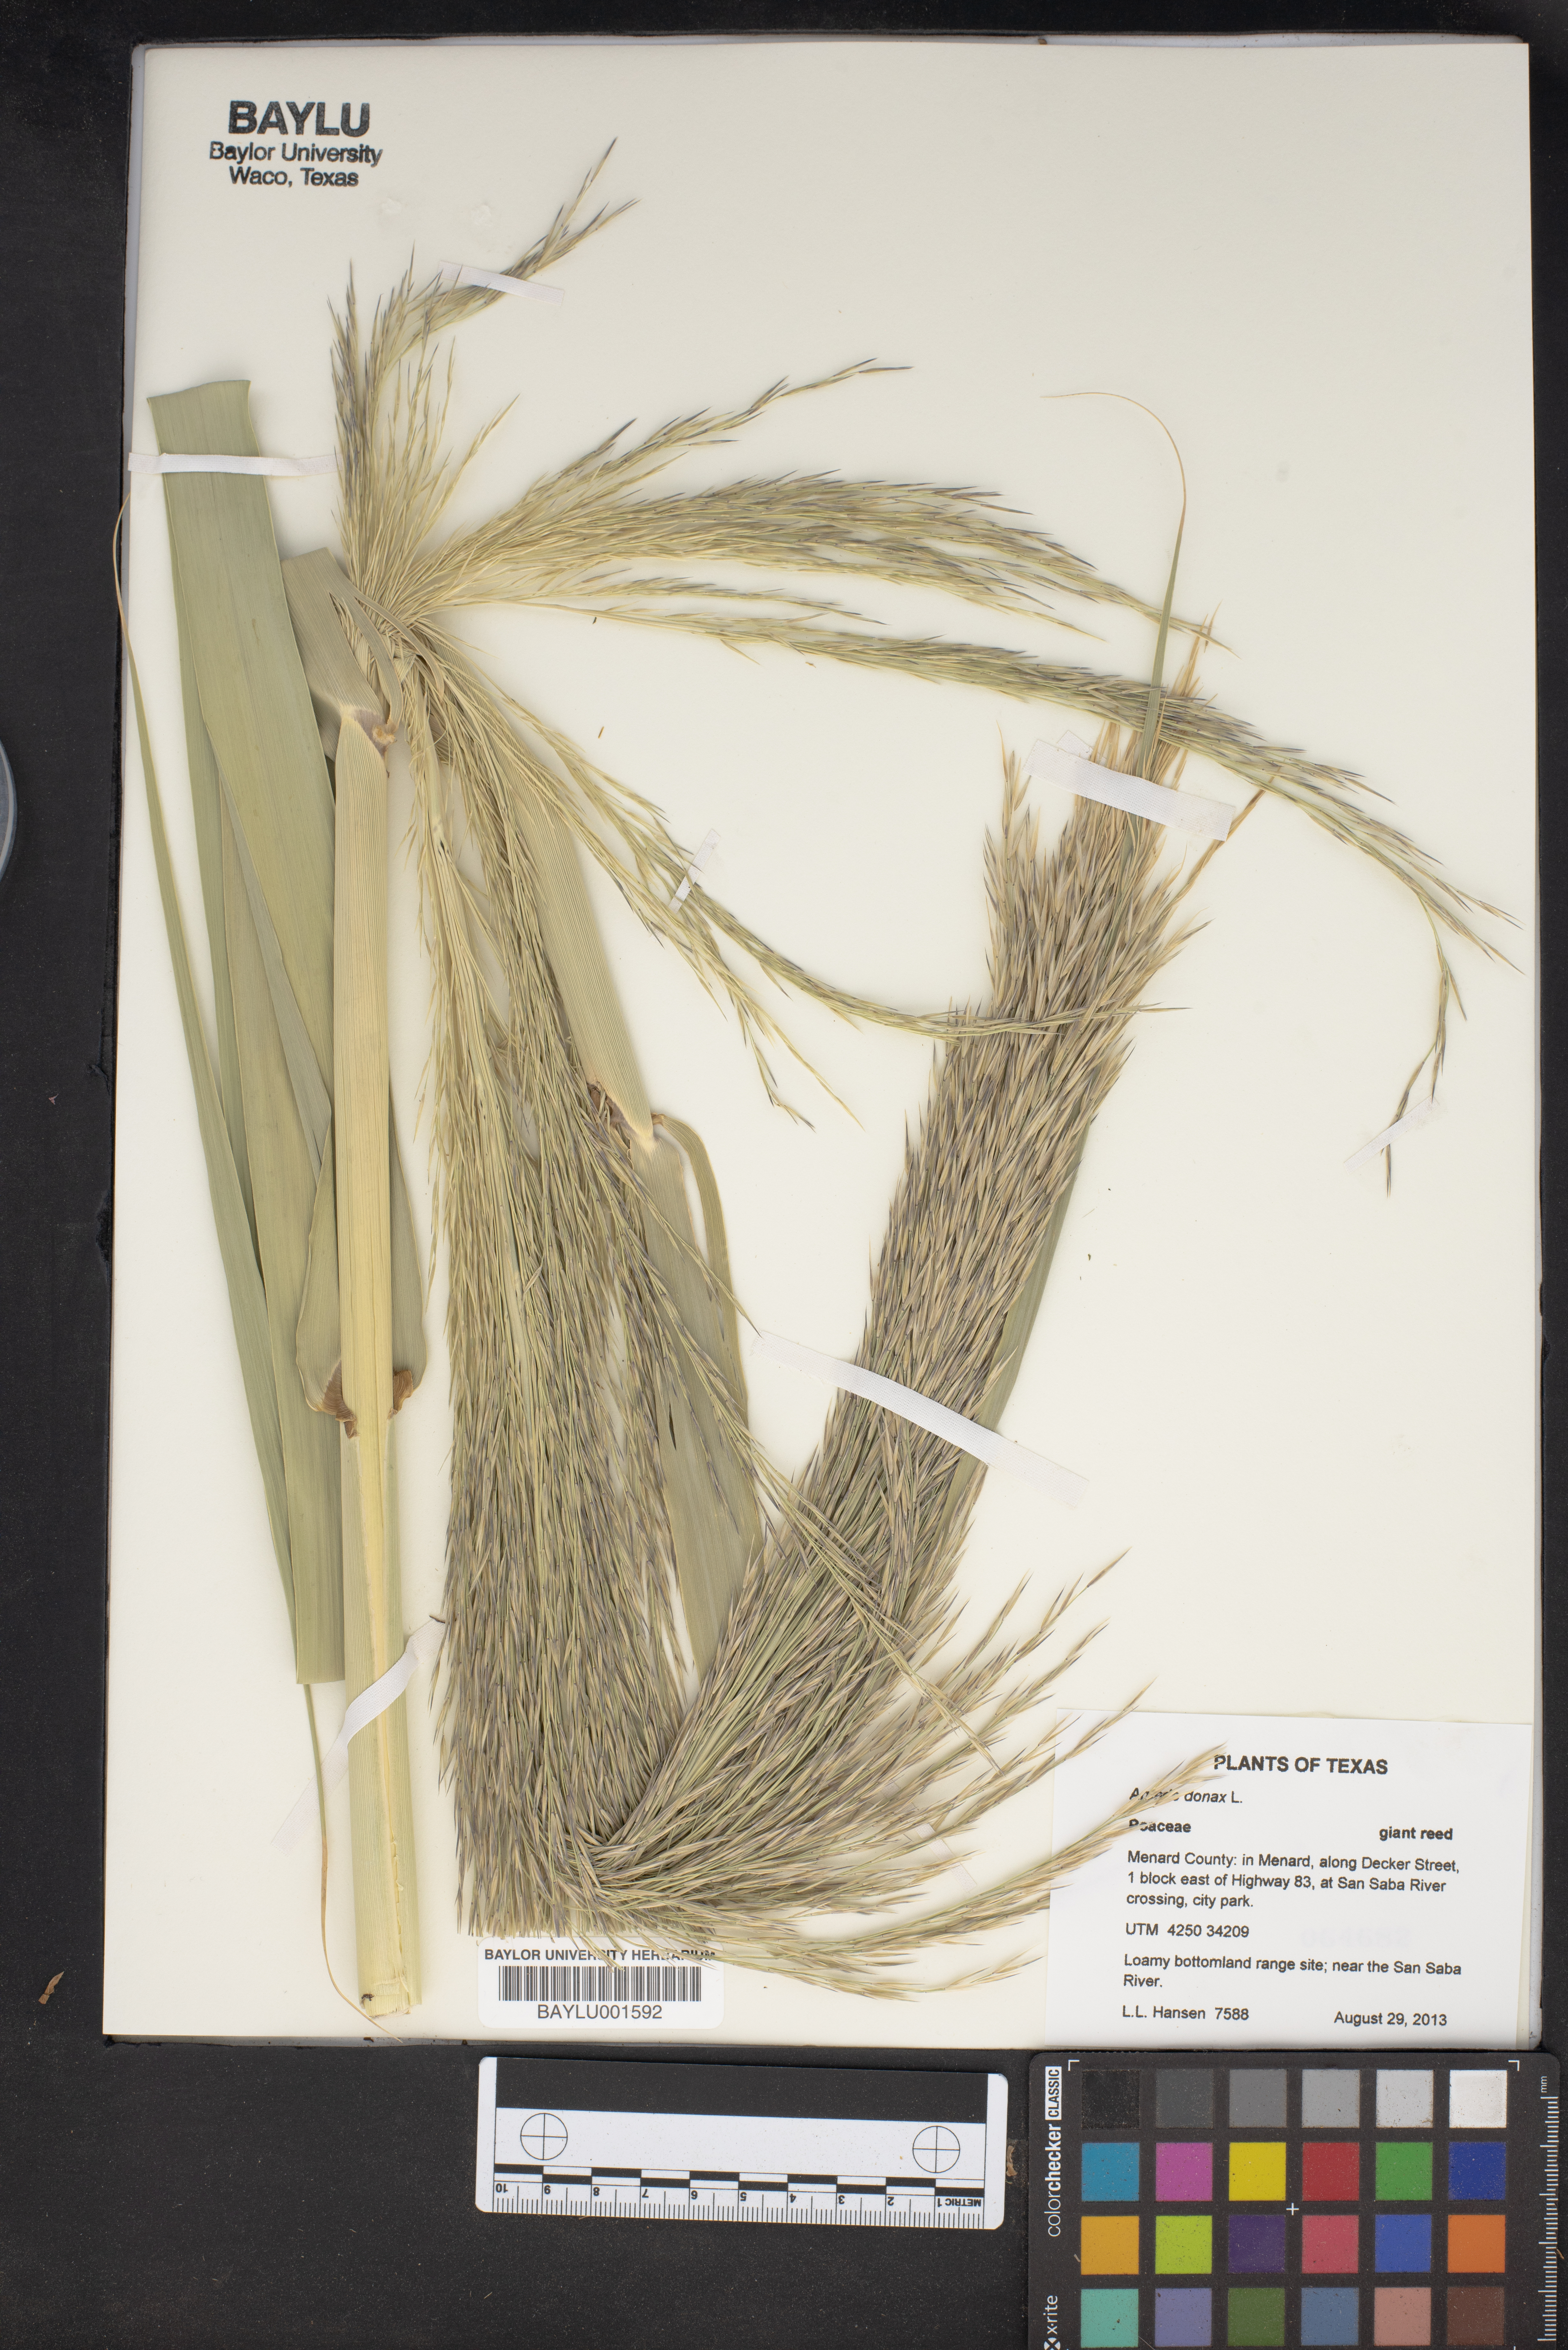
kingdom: Plantae
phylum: Tracheophyta
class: Liliopsida
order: Poales
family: Poaceae
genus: Arundo
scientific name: Arundo donax
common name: Giant reed
